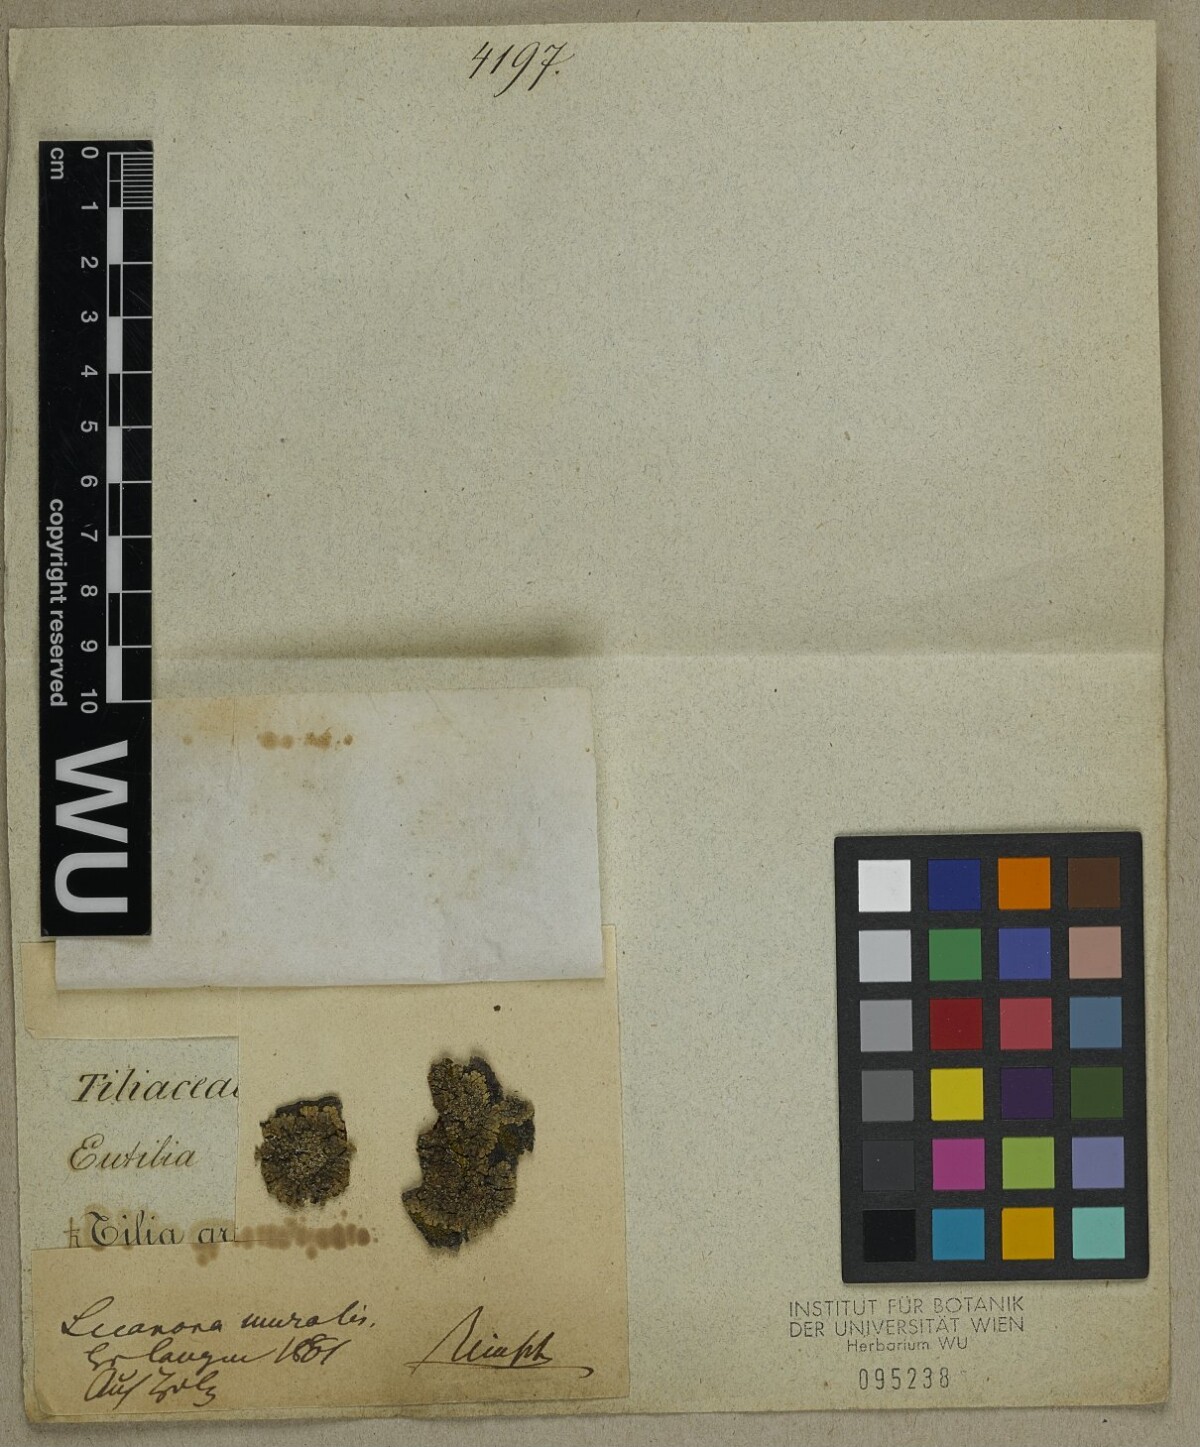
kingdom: Fungi
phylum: Ascomycota
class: Lecanoromycetes
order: Lecanorales
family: Lecanoraceae
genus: Protoparmeliopsis
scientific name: Protoparmeliopsis muralis
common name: Stonewall rim lichen
